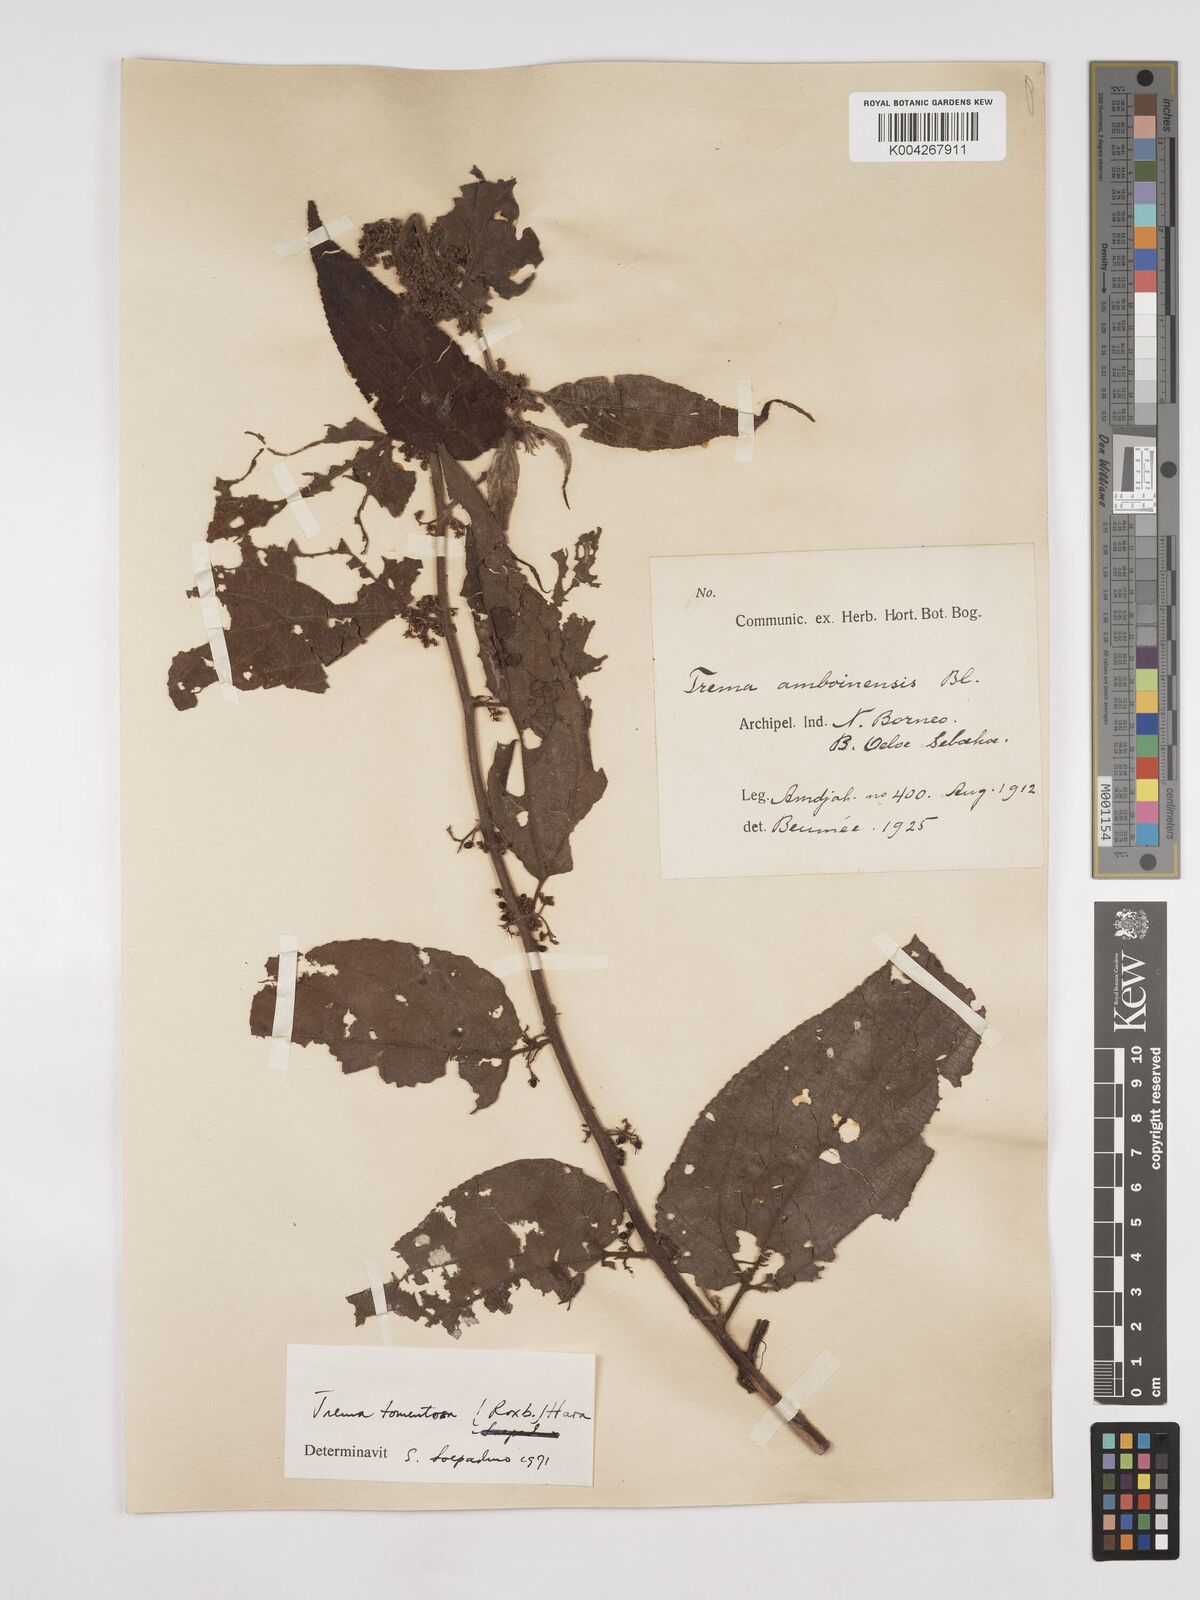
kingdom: Plantae
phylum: Tracheophyta
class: Magnoliopsida
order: Rosales
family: Cannabaceae
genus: Trema
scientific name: Trema tomentosum
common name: Peach-leaf-poisonbush
